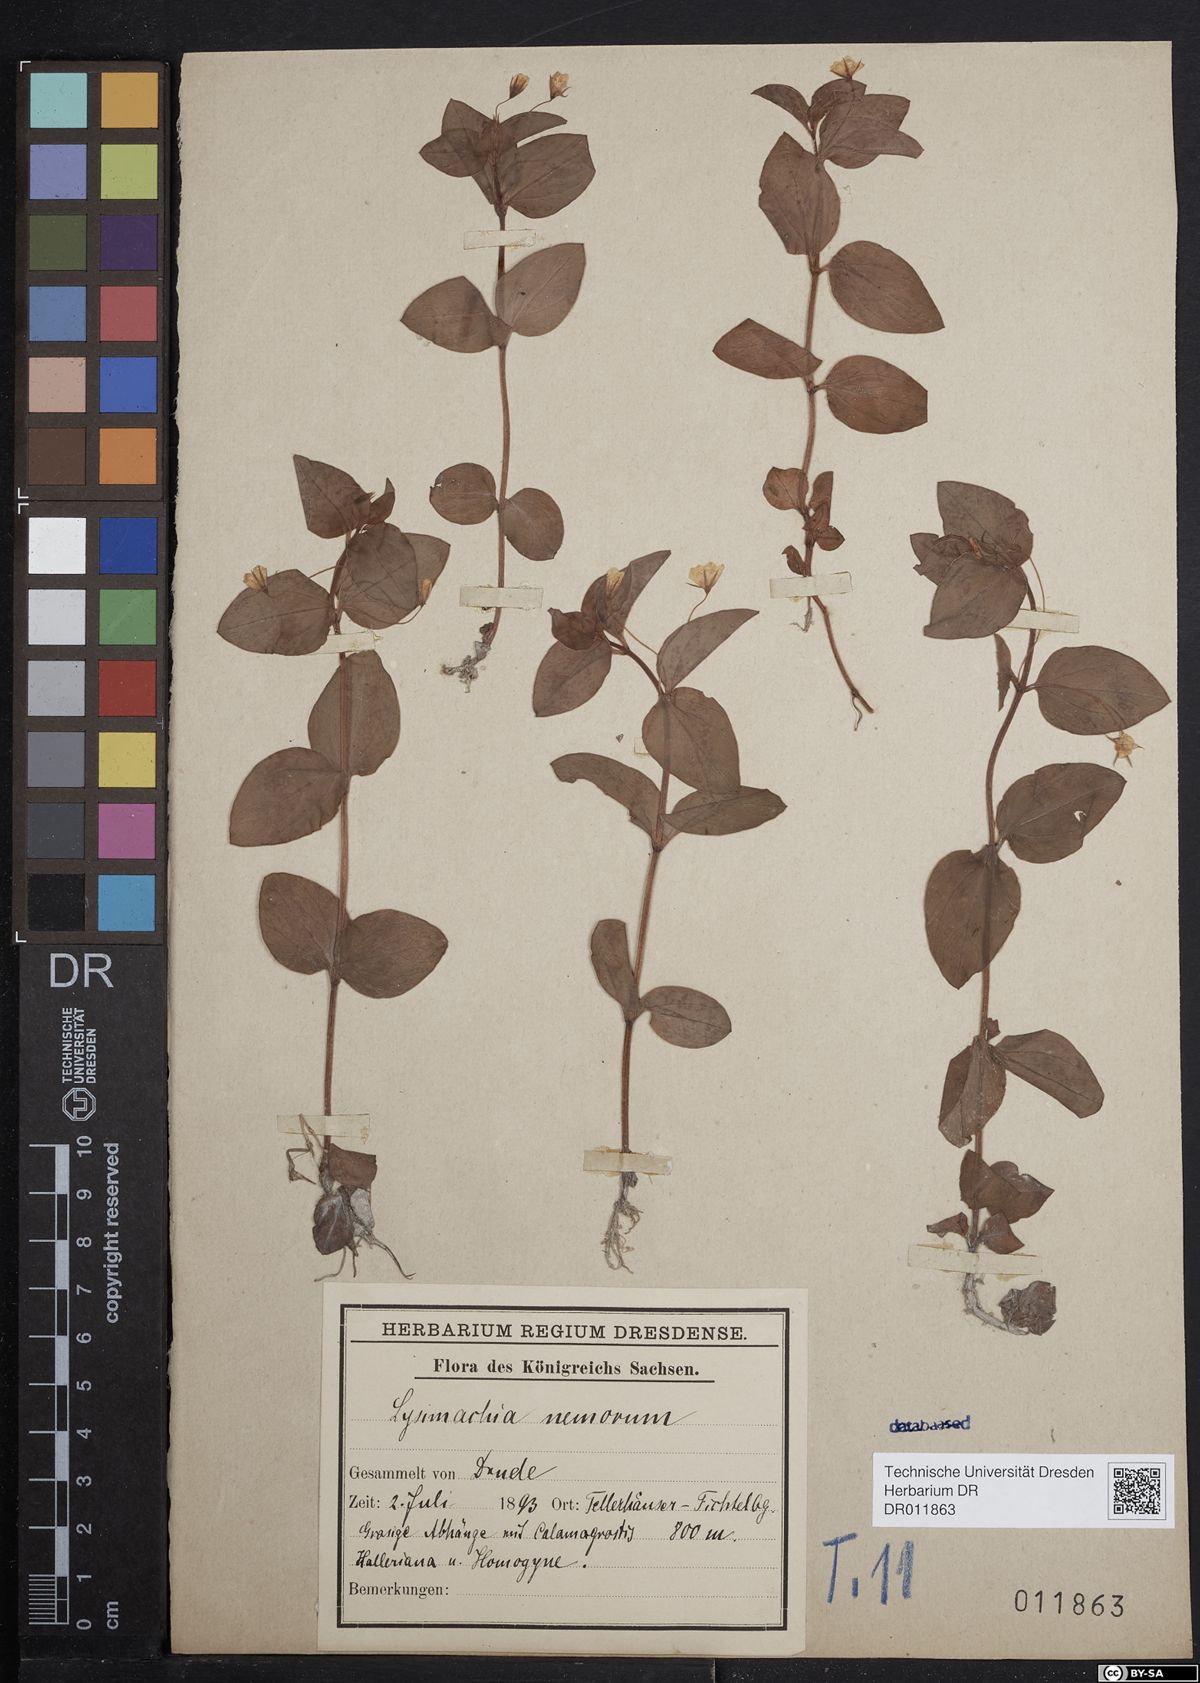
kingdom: Plantae
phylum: Tracheophyta
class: Magnoliopsida
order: Ericales
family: Primulaceae
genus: Lysimachia
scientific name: Lysimachia nemorum
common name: Yellow pimpernel
